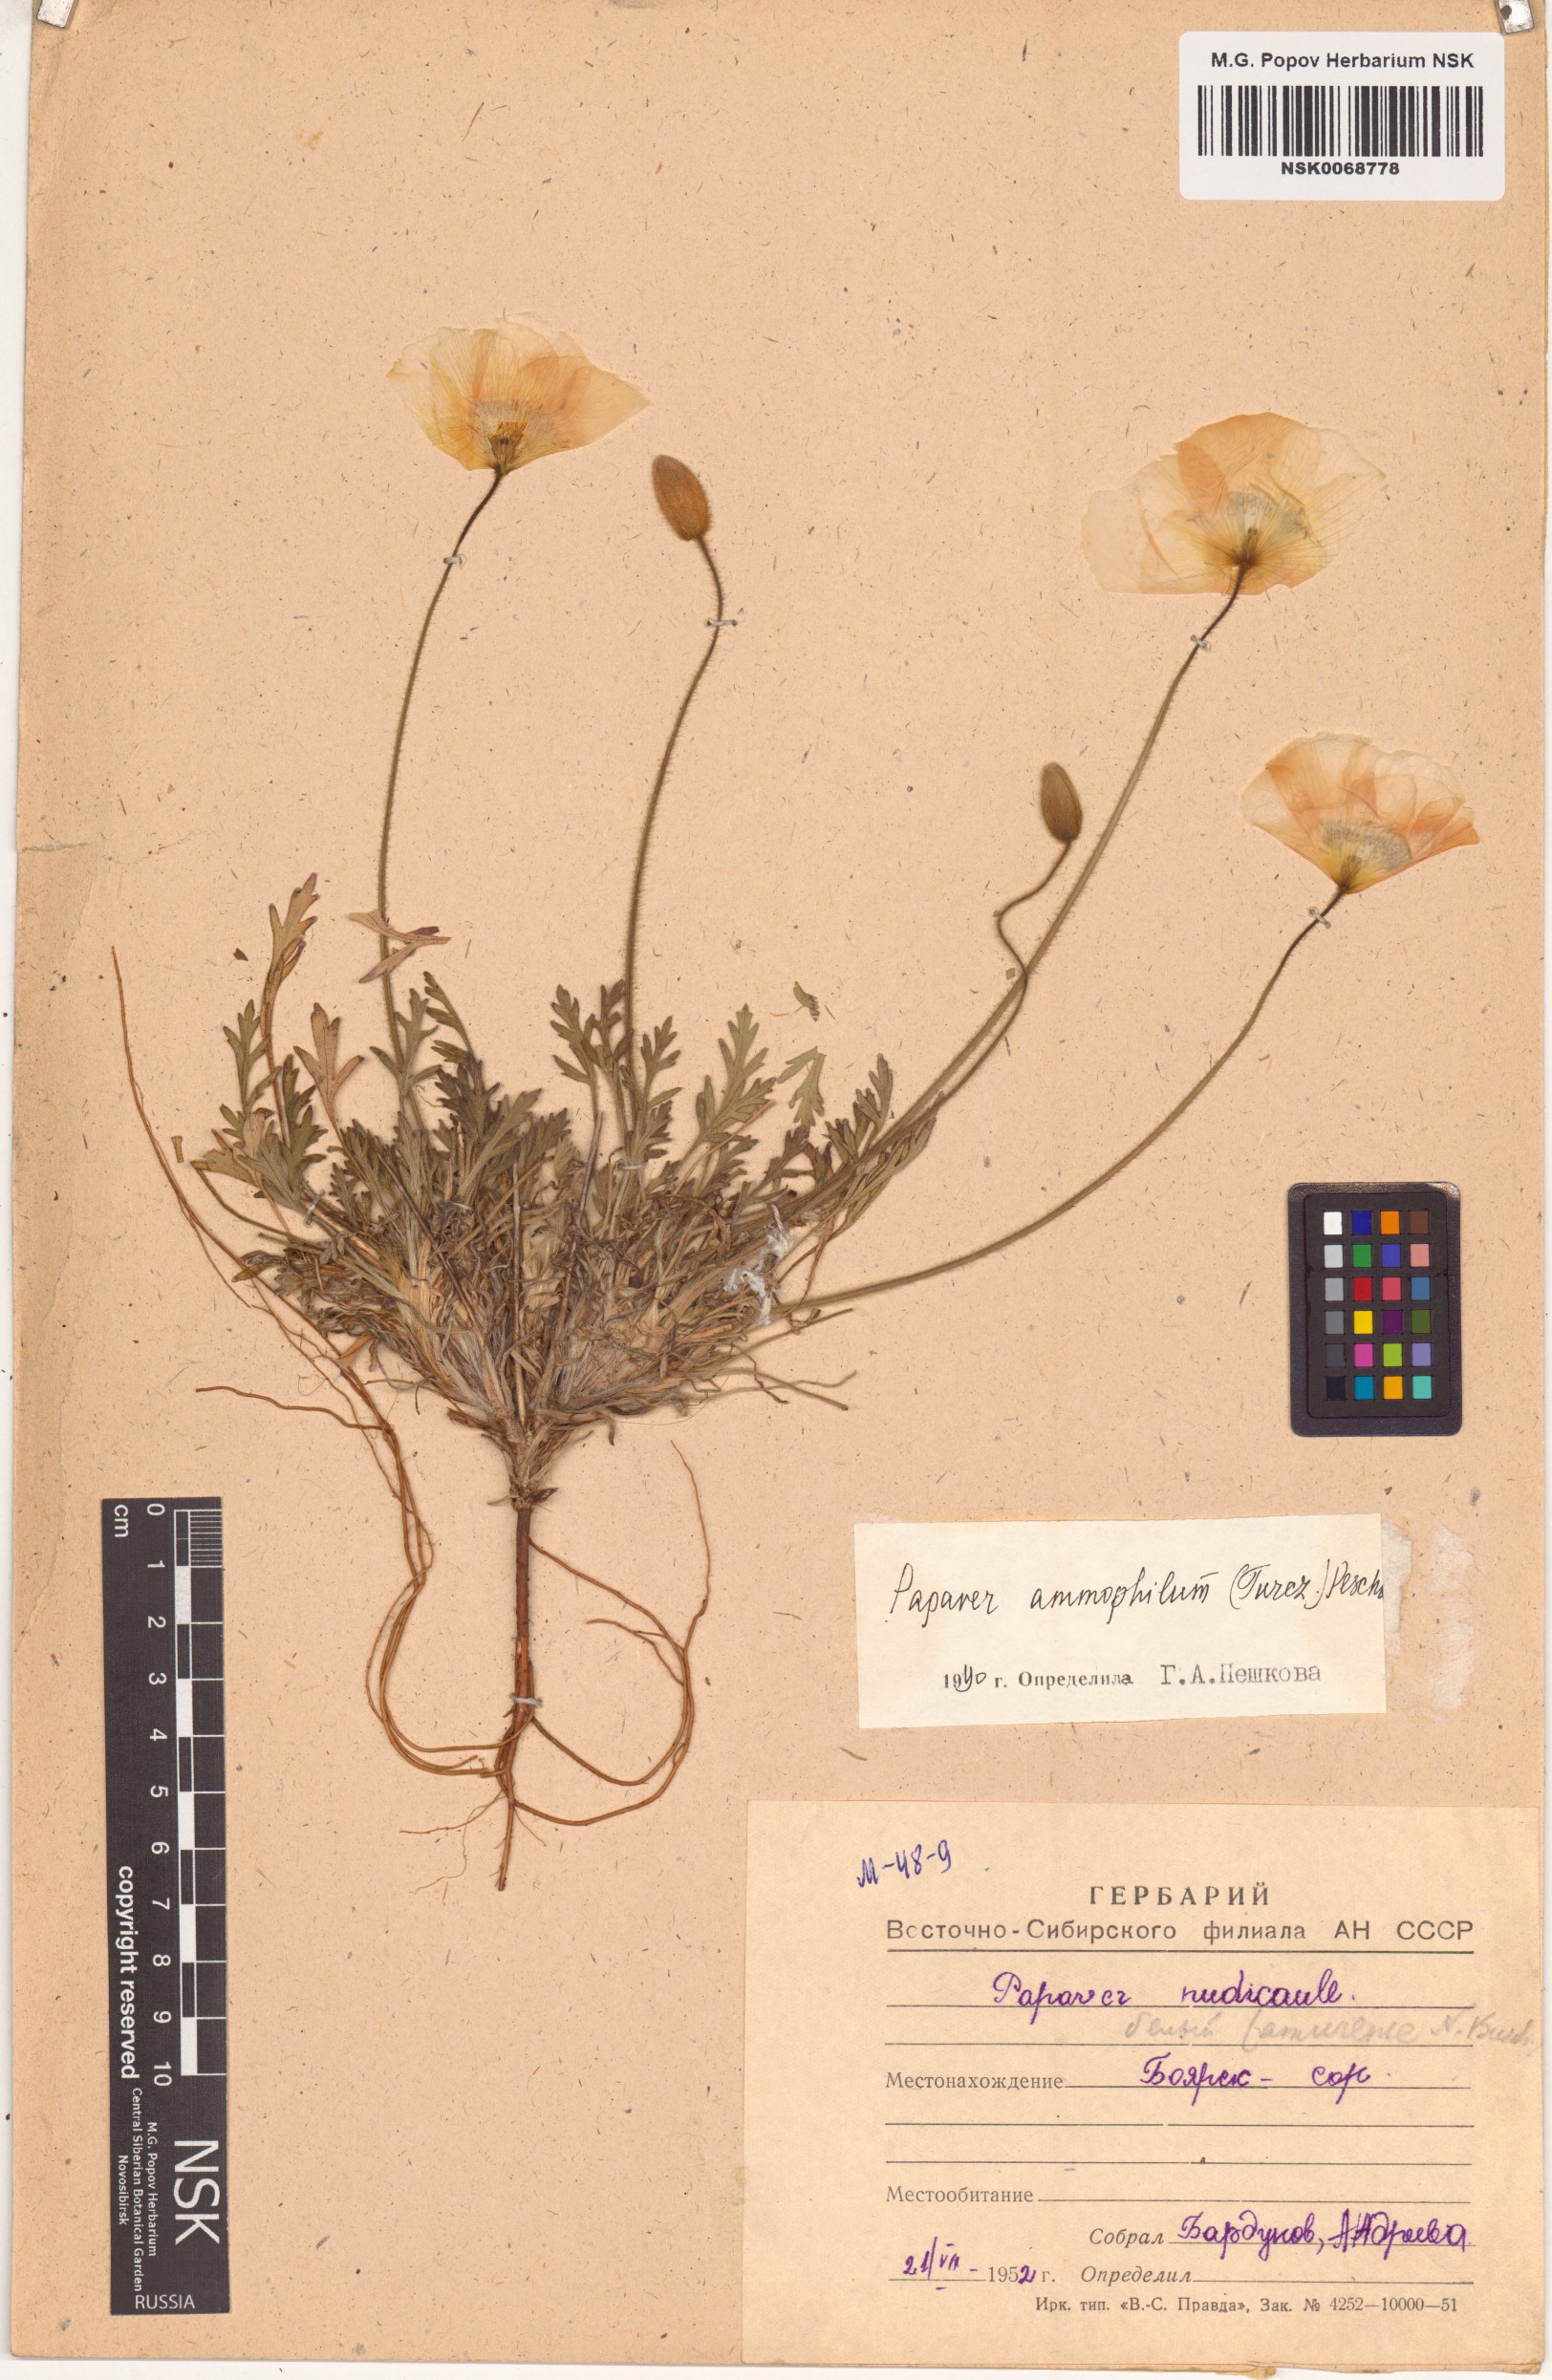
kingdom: Plantae
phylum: Tracheophyta
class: Magnoliopsida
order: Ranunculales
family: Papaveraceae
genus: Papaver
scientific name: Papaver nudicaule
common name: Arctic poppy
